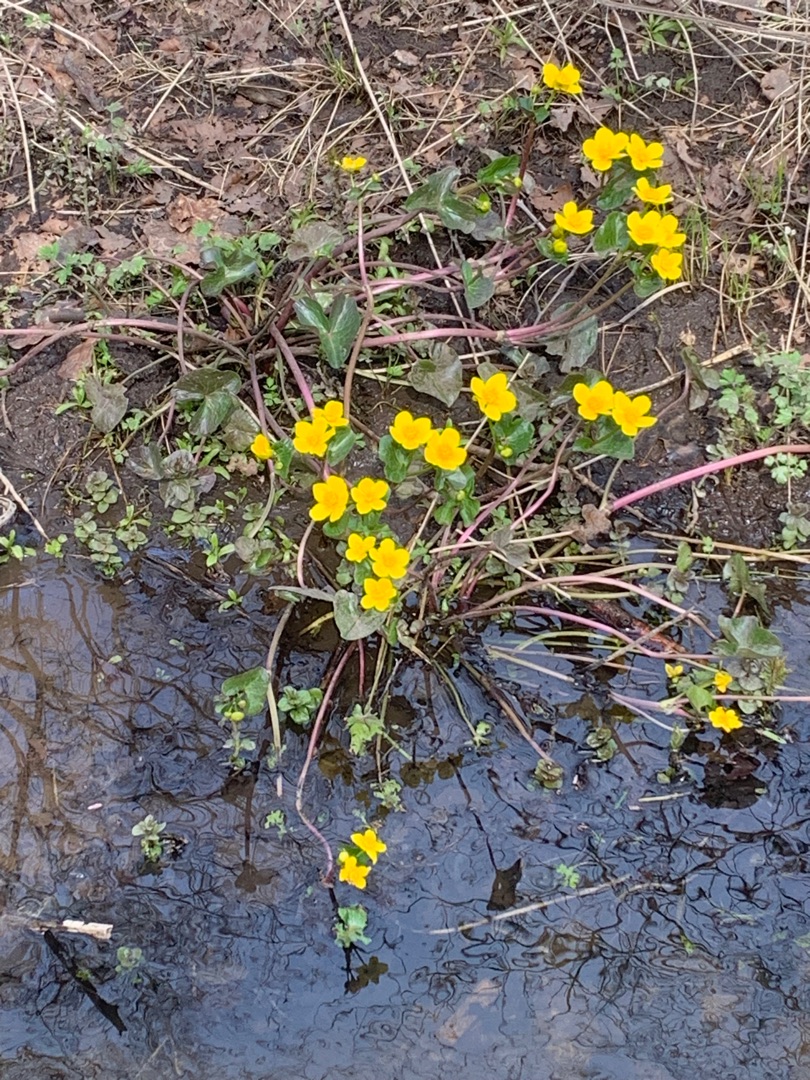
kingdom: Plantae
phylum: Tracheophyta
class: Magnoliopsida
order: Ranunculales
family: Ranunculaceae
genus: Caltha
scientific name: Caltha palustris
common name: Eng-kabbeleje
